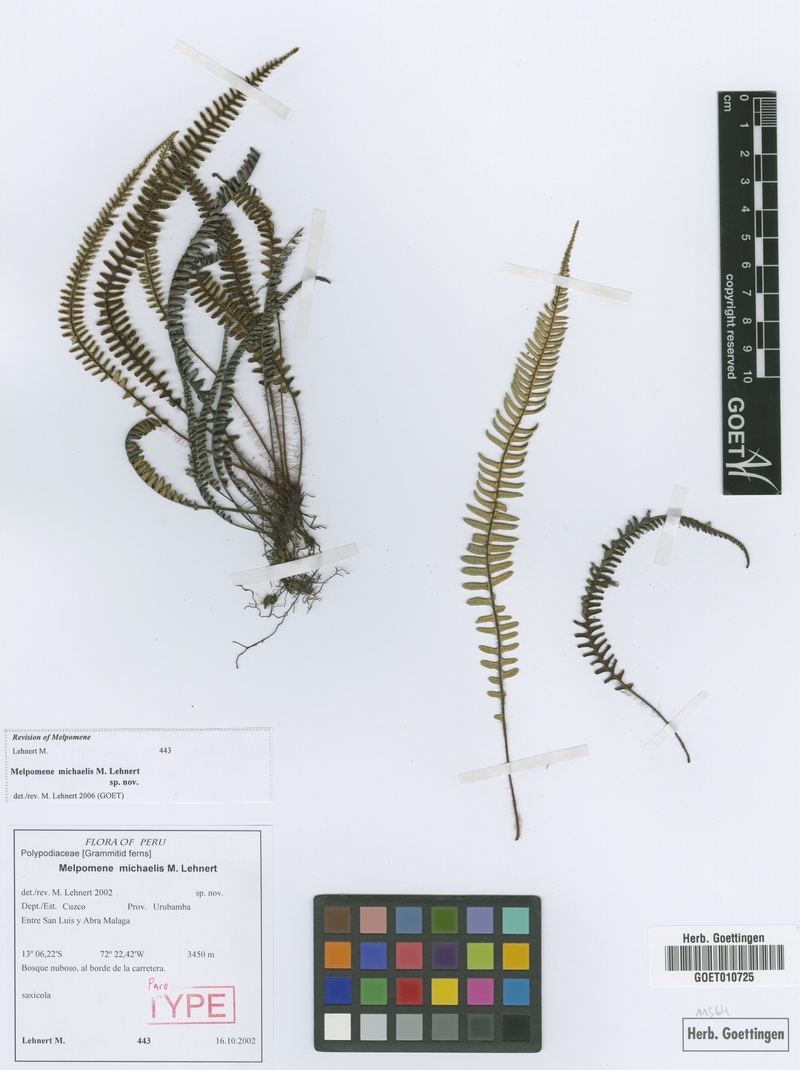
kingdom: Plantae
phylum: Tracheophyta
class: Polypodiopsida
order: Polypodiales
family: Polypodiaceae
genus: Melpomene
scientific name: Melpomene michaelis
